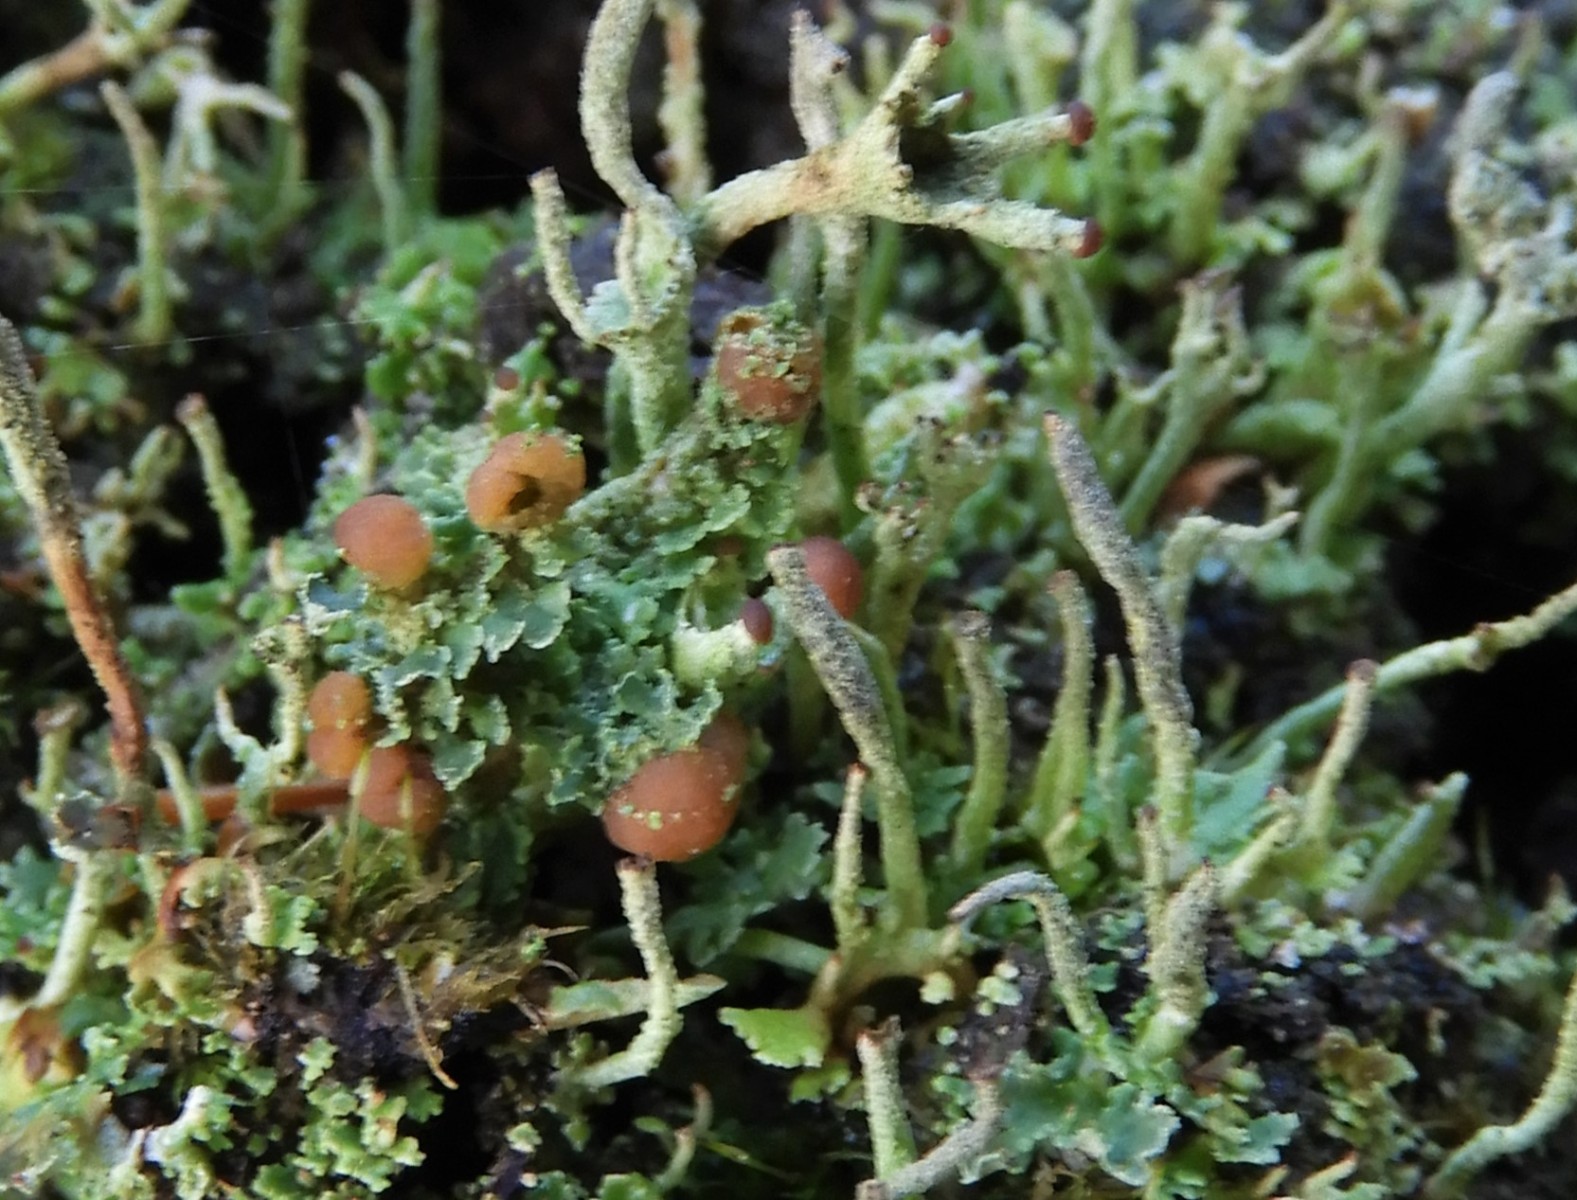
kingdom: Fungi
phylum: Ascomycota
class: Lecanoromycetes
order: Lecanorales
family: Cladoniaceae
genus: Cladonia
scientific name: Cladonia ramulosa
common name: kliddet bægerlav
